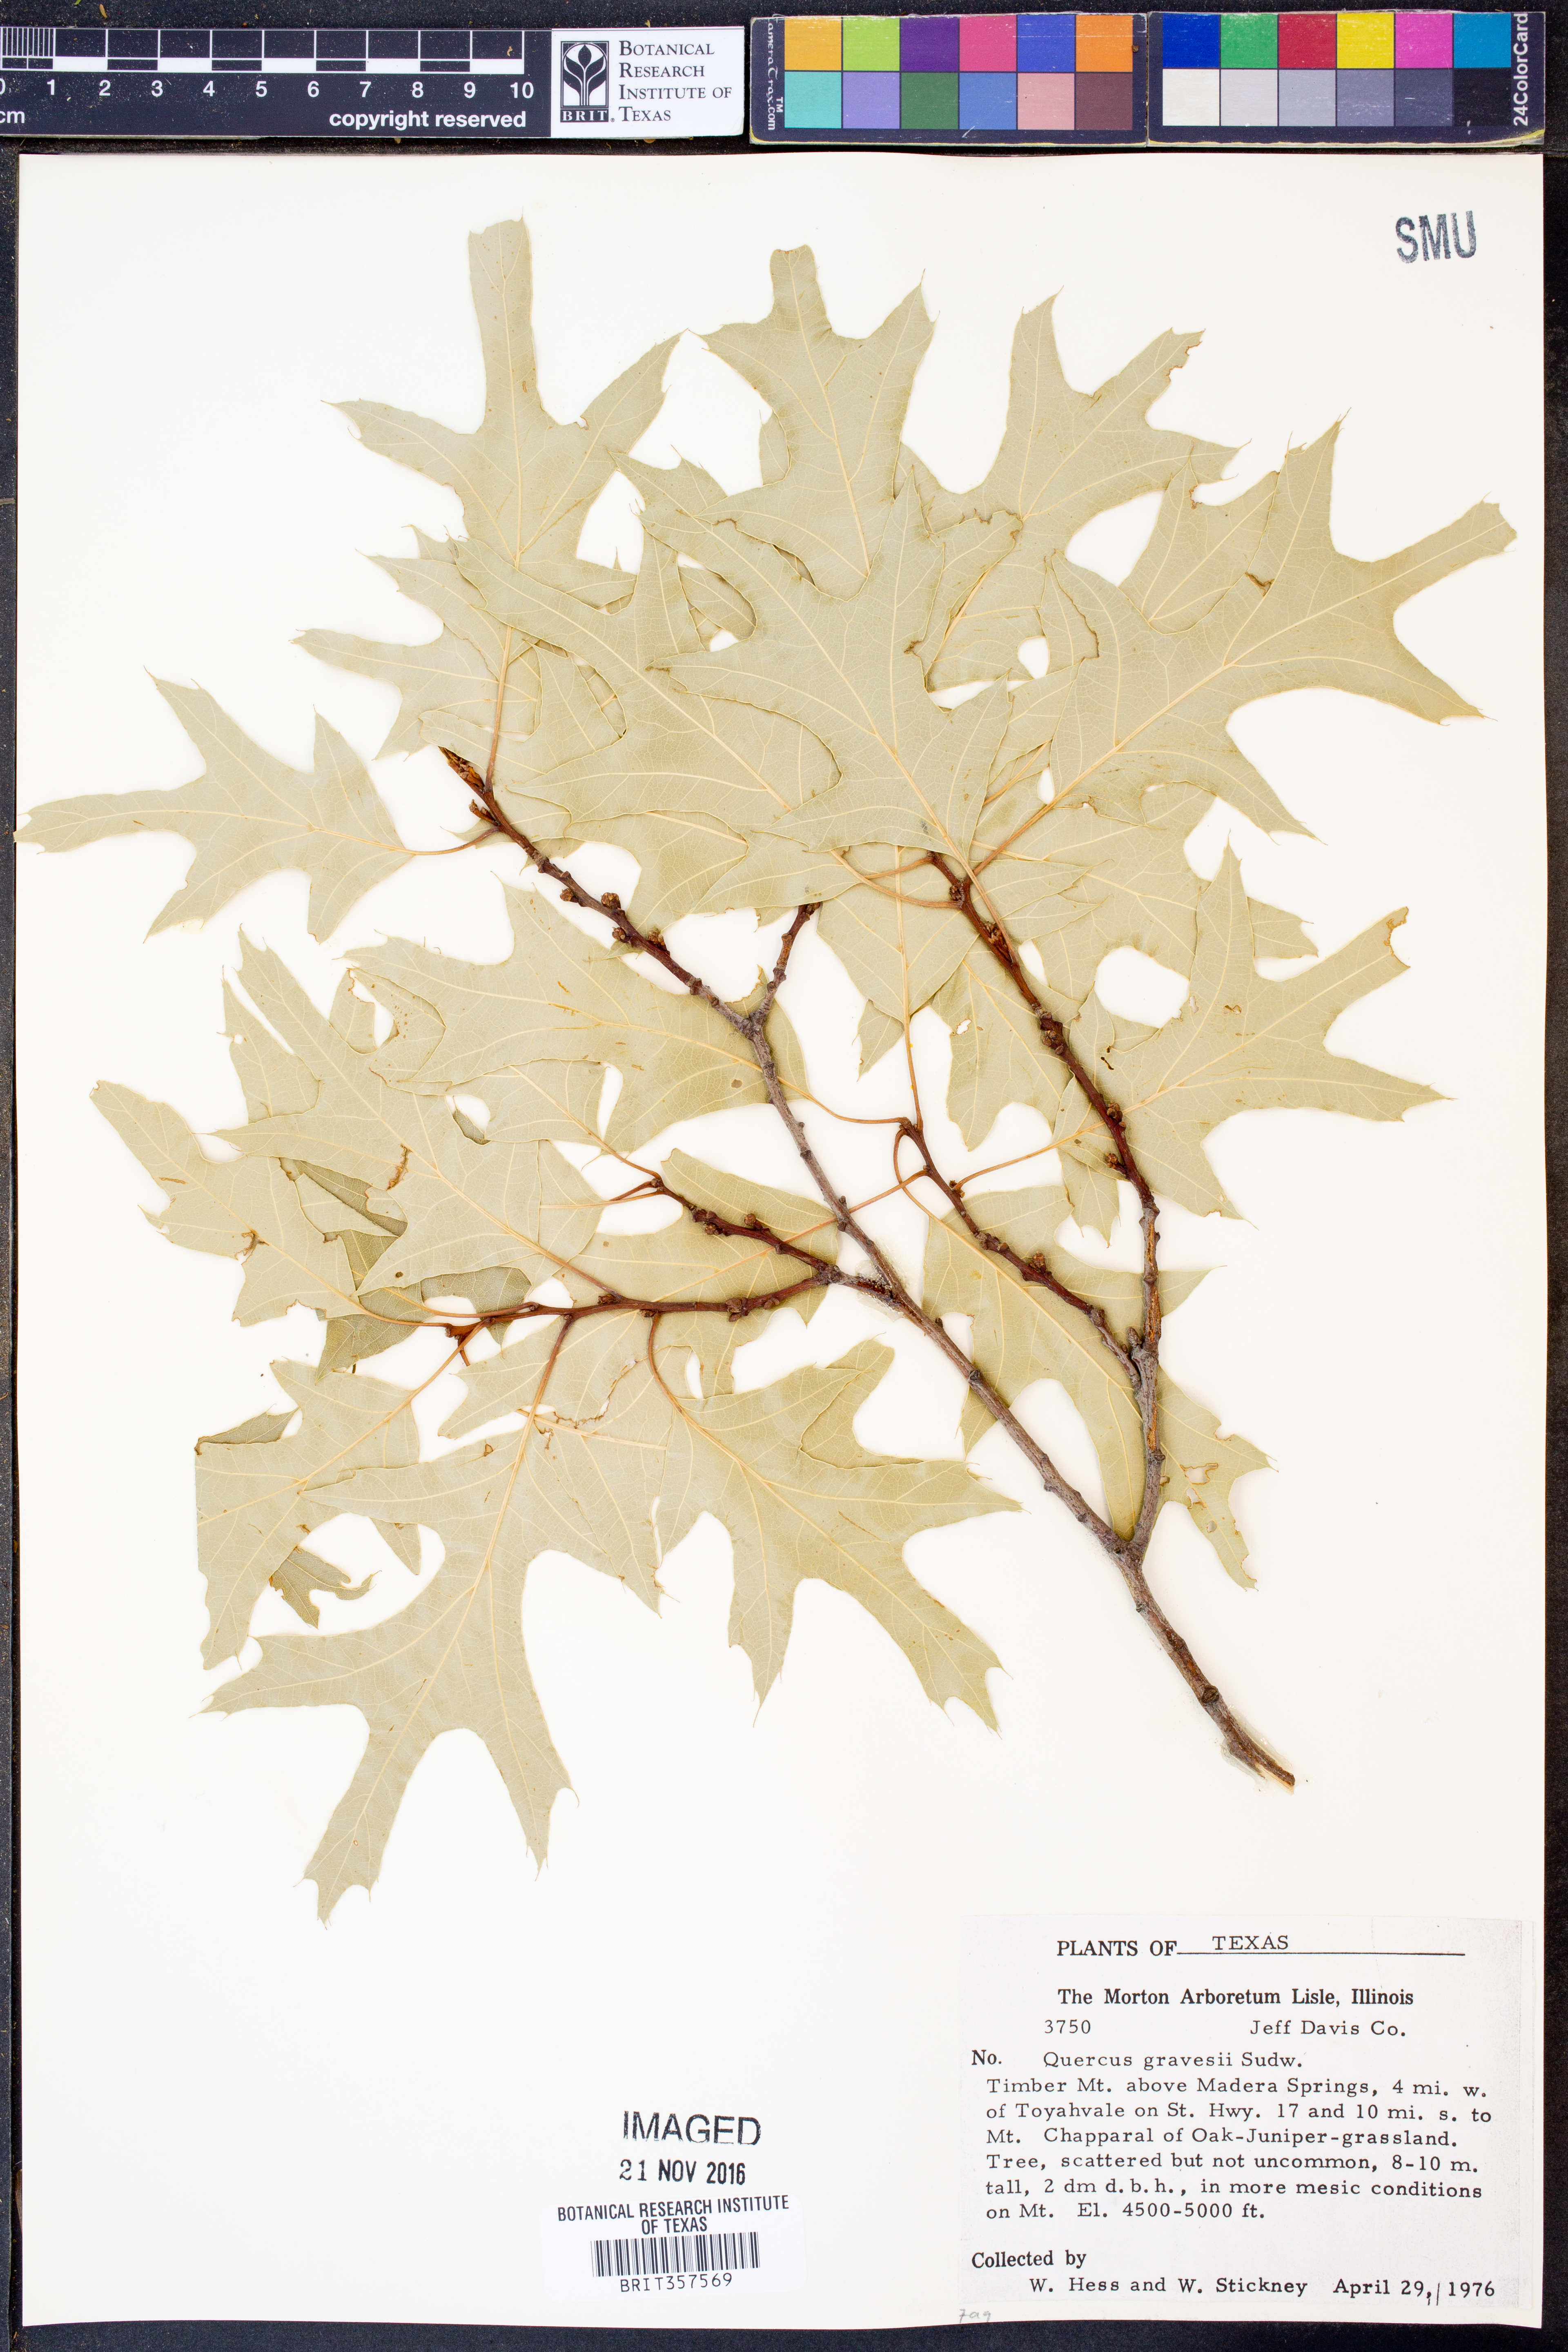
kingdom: Plantae
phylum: Tracheophyta
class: Magnoliopsida
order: Fagales
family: Fagaceae
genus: Quercus
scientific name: Quercus gravesii
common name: Chisos red oak
